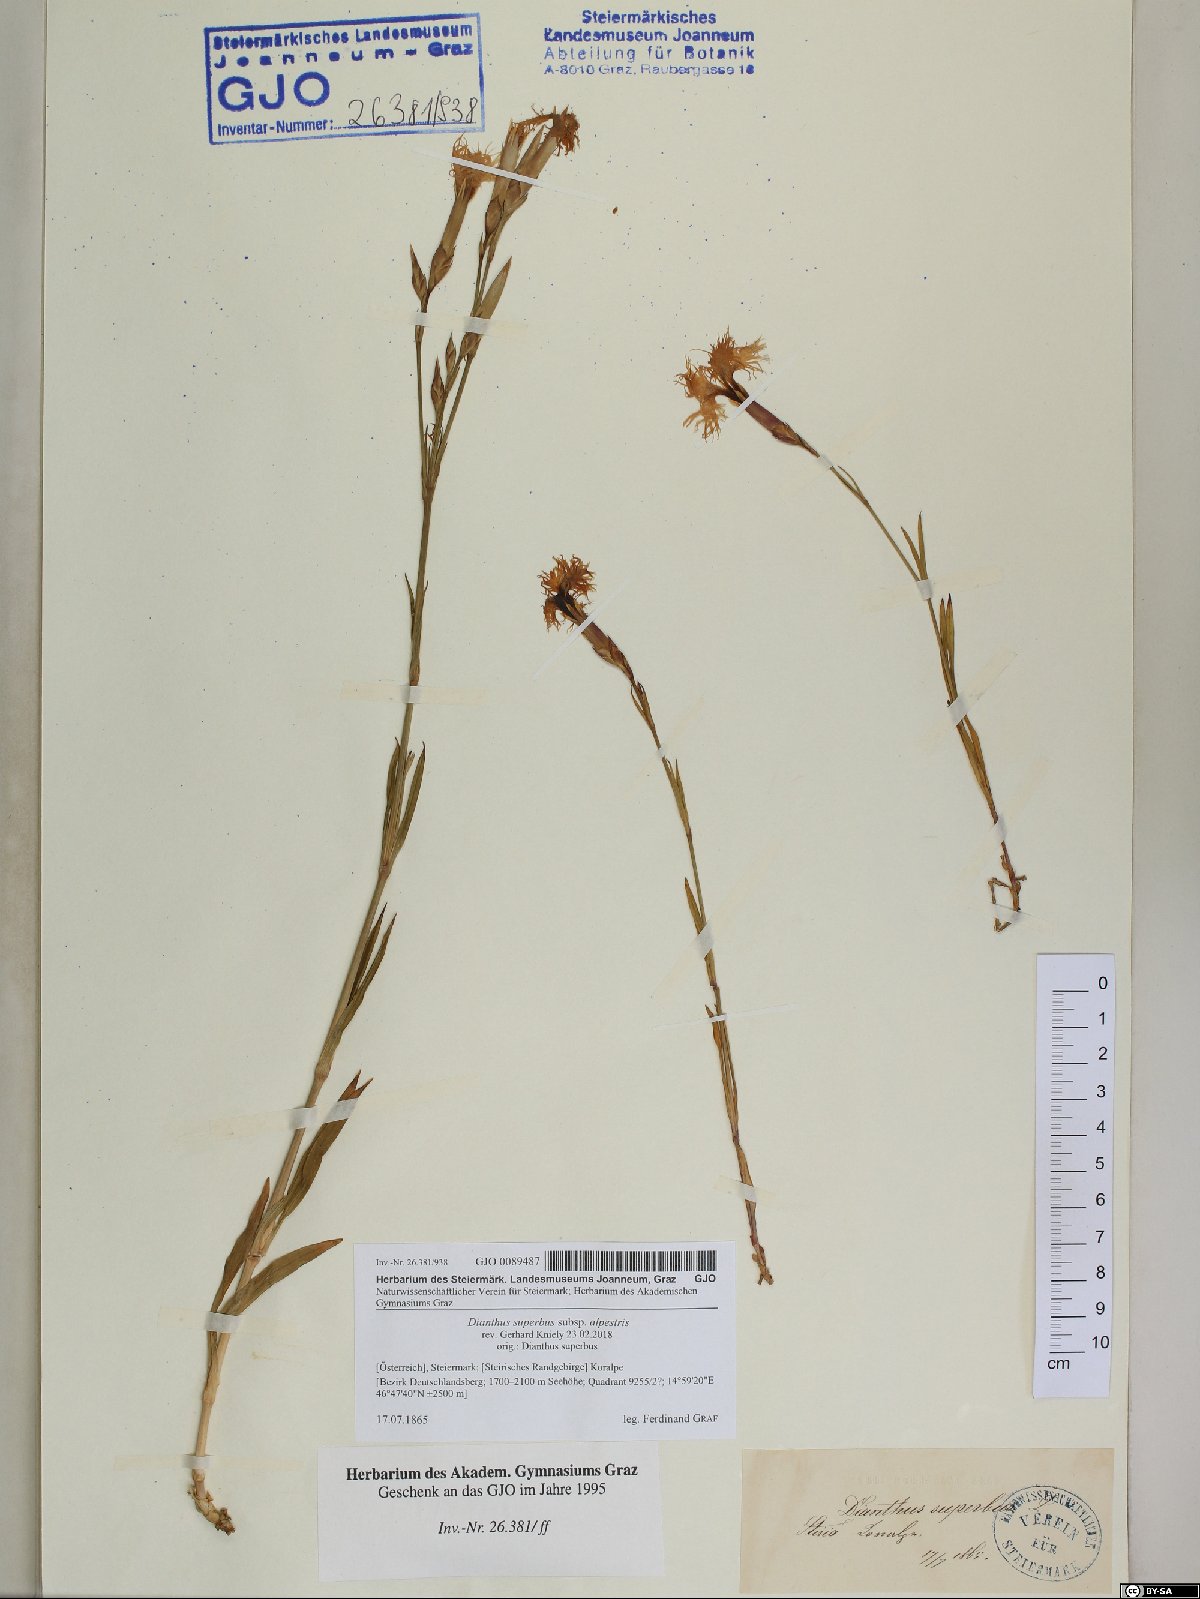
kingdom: Plantae
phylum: Tracheophyta
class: Magnoliopsida
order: Caryophyllales
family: Caryophyllaceae
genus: Dianthus
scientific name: Dianthus superbus
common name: Fringed pink
